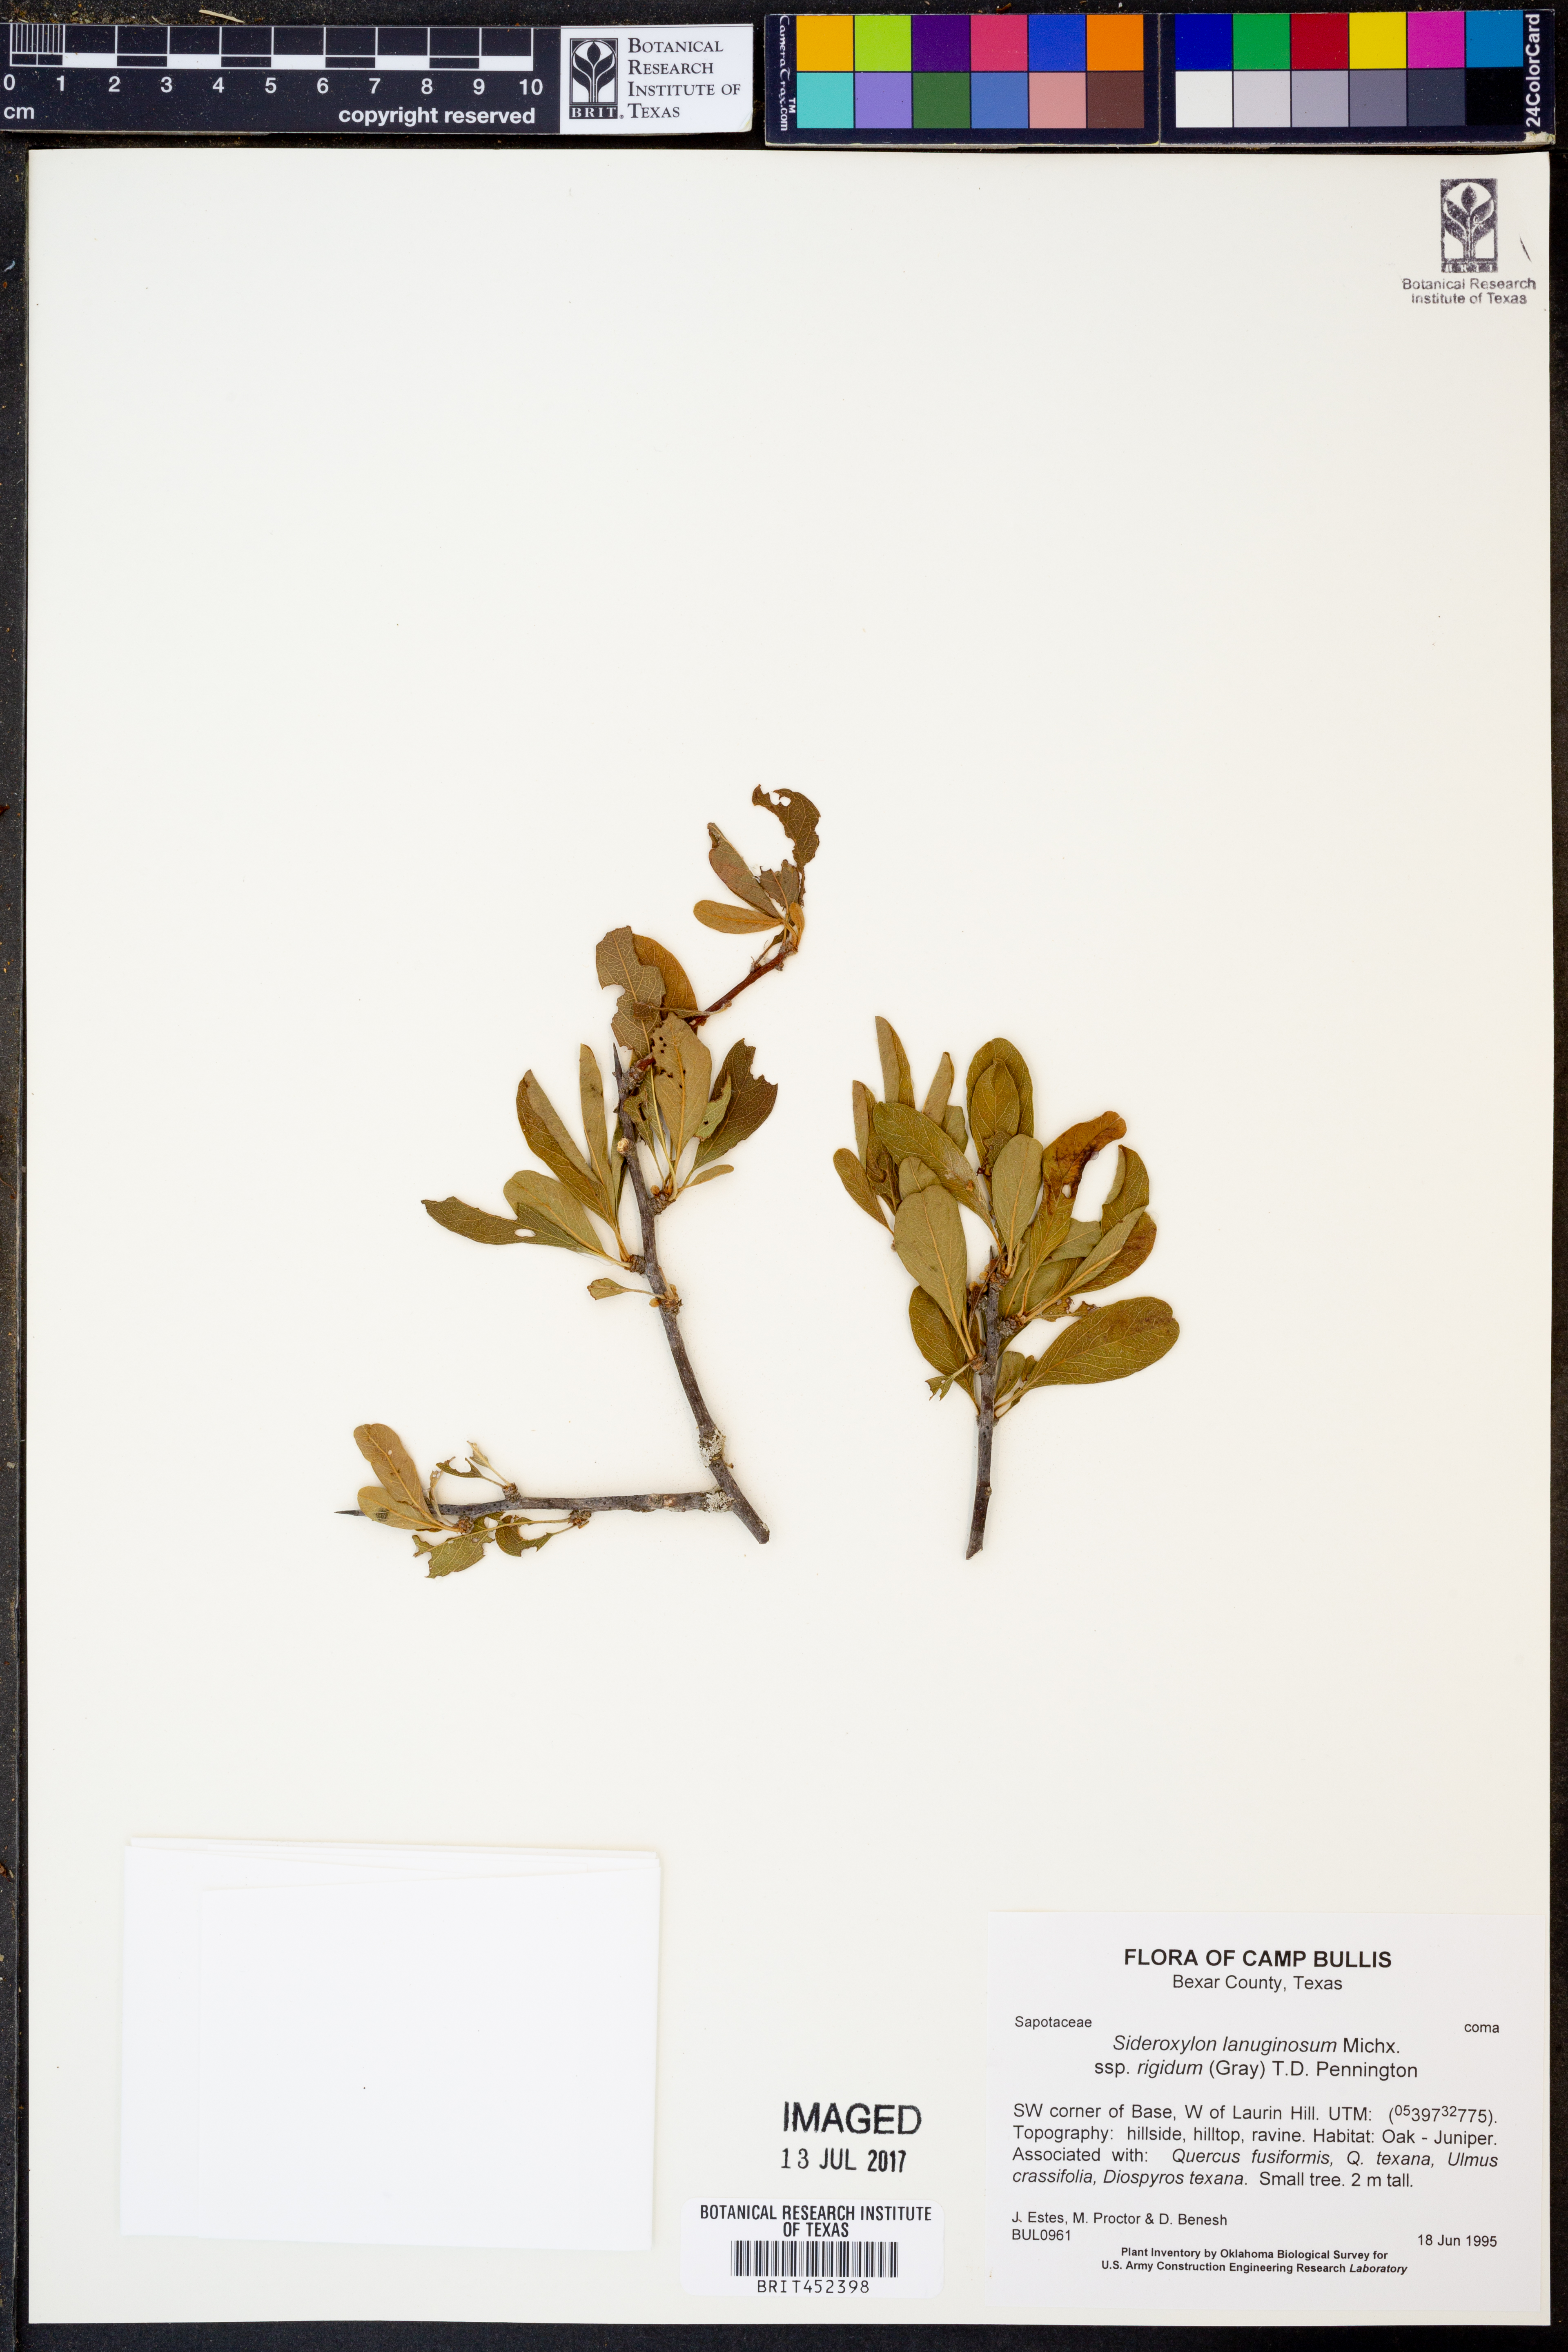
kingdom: Plantae
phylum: Tracheophyta
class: Magnoliopsida
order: Ericales
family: Sapotaceae
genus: Sideroxylon
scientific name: Sideroxylon lanuginosum
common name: Chittamwood
